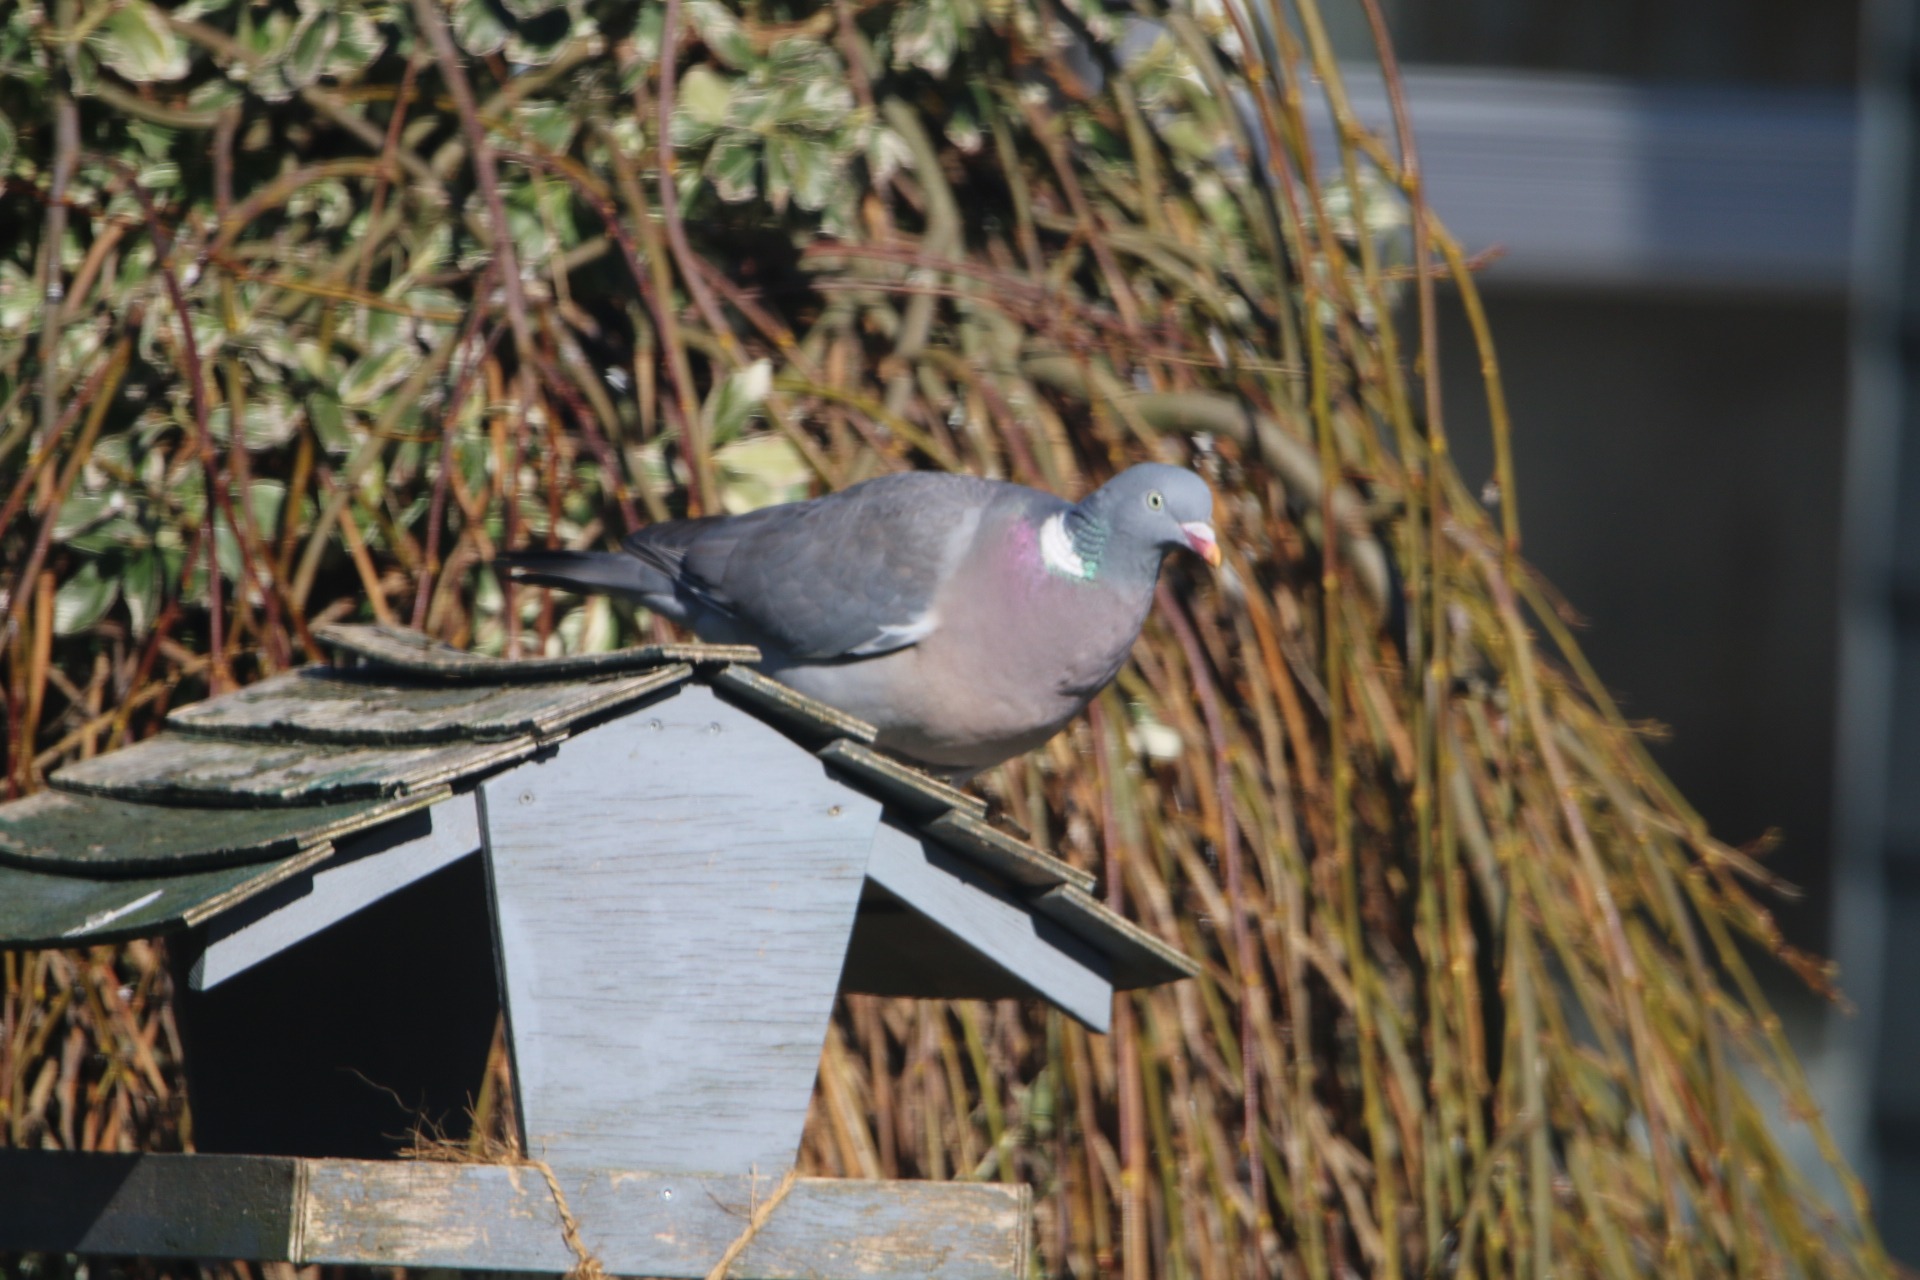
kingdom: Animalia
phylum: Chordata
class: Aves
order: Columbiformes
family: Columbidae
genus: Columba
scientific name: Columba palumbus
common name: Ringdue
